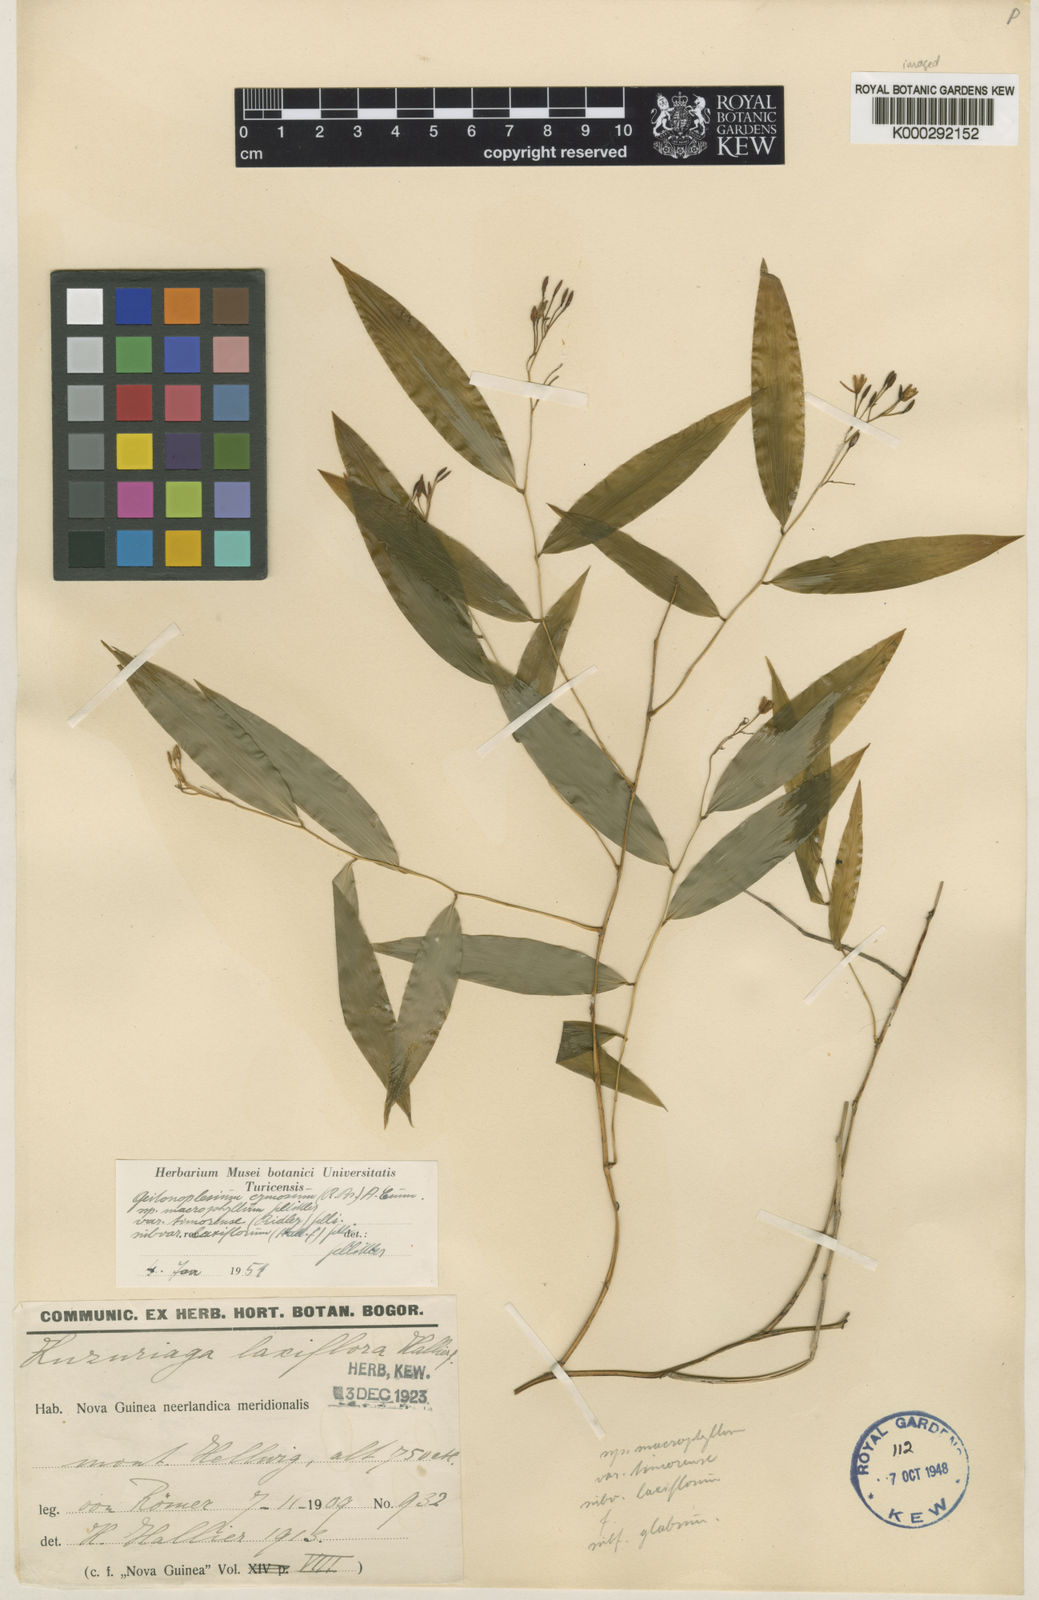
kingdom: Plantae
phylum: Tracheophyta
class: Liliopsida
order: Asparagales
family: Asphodelaceae
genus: Geitonoplesium
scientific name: Geitonoplesium
